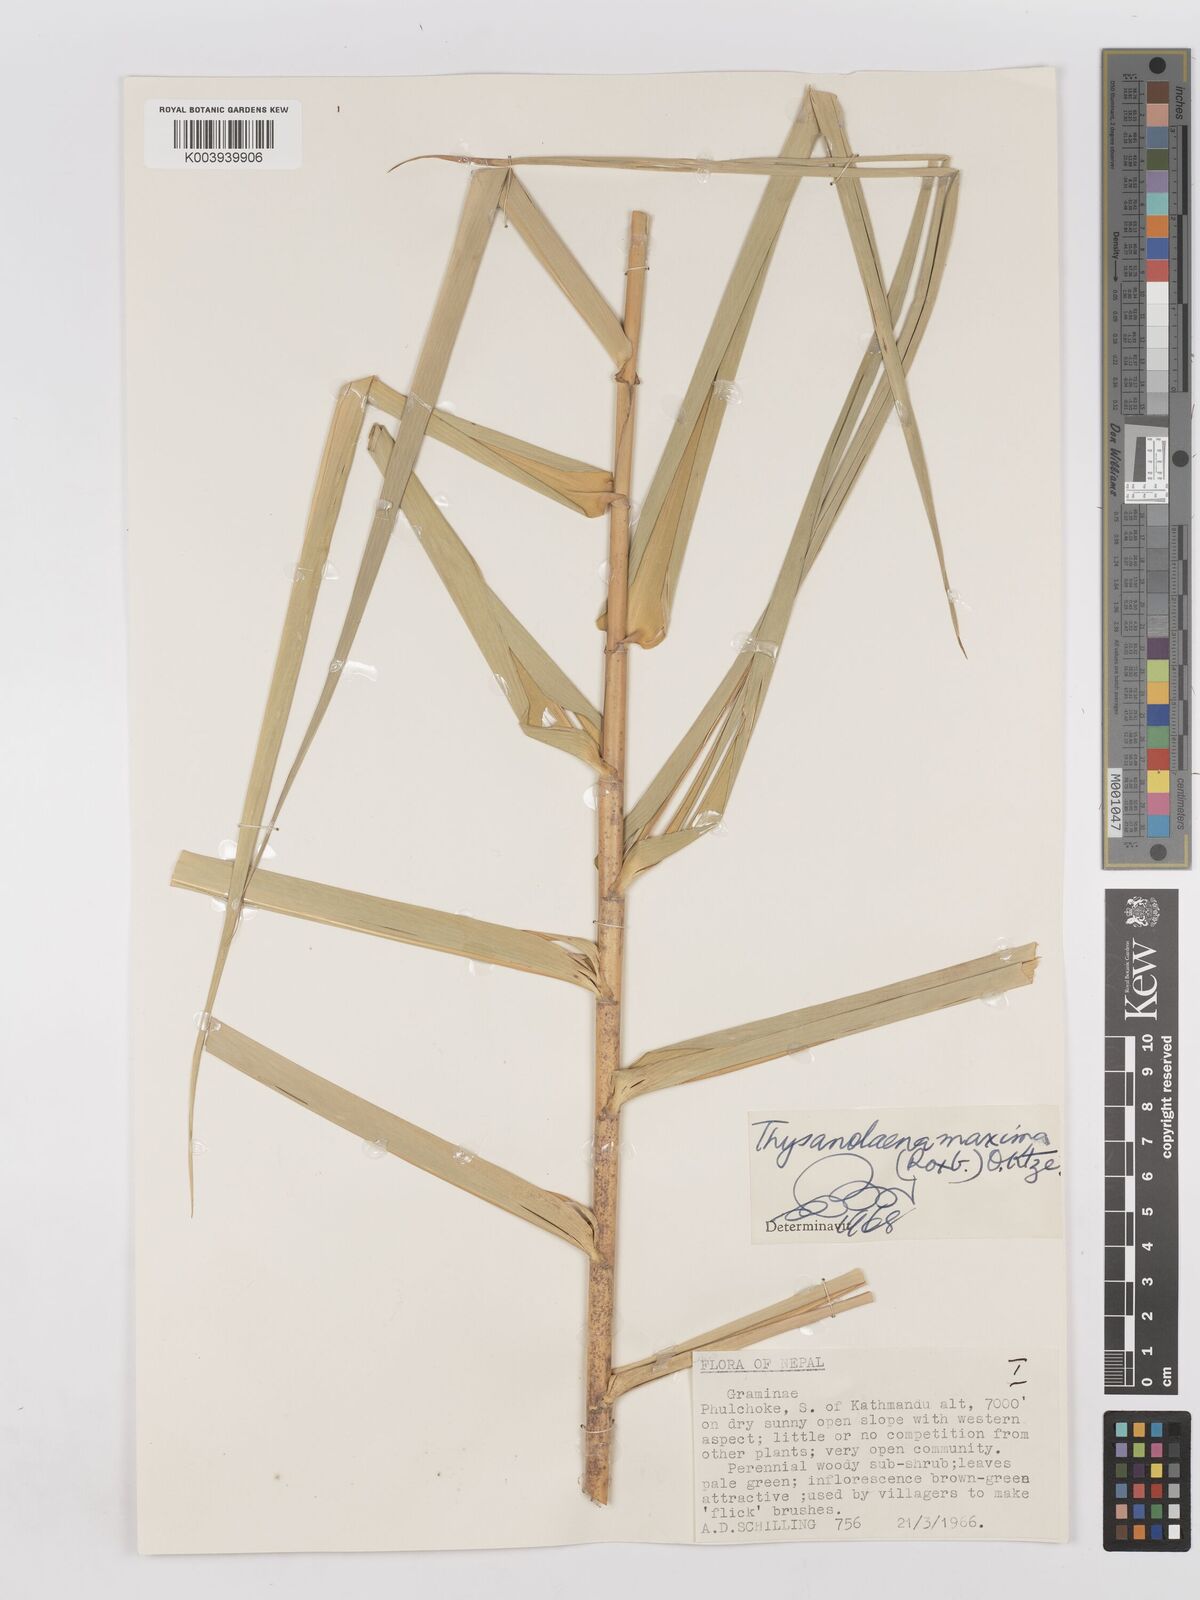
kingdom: Plantae
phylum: Tracheophyta
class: Liliopsida
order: Poales
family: Poaceae
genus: Thysanolaena
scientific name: Thysanolaena latifolia
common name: Tiger grass
